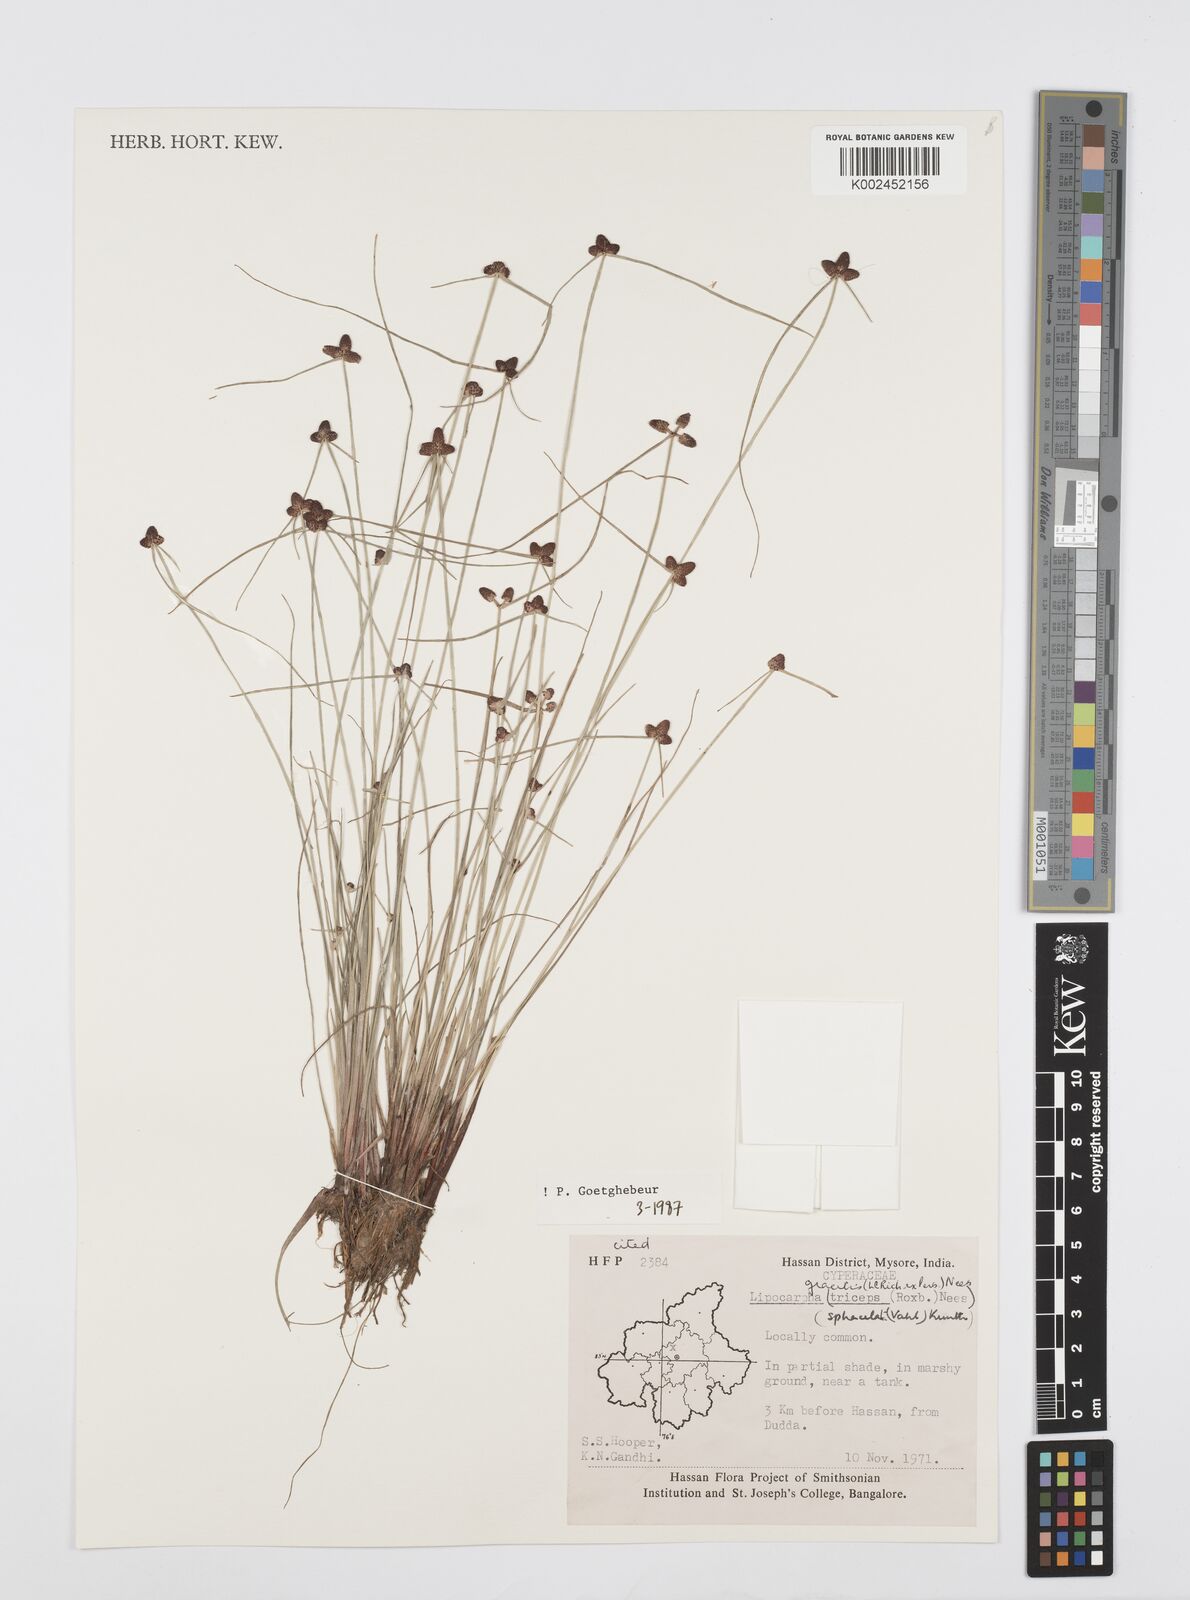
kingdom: Plantae
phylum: Tracheophyta
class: Liliopsida
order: Poales
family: Cyperaceae
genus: Cyperus
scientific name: Cyperus sphacelatus
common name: Roadside flatsedge
